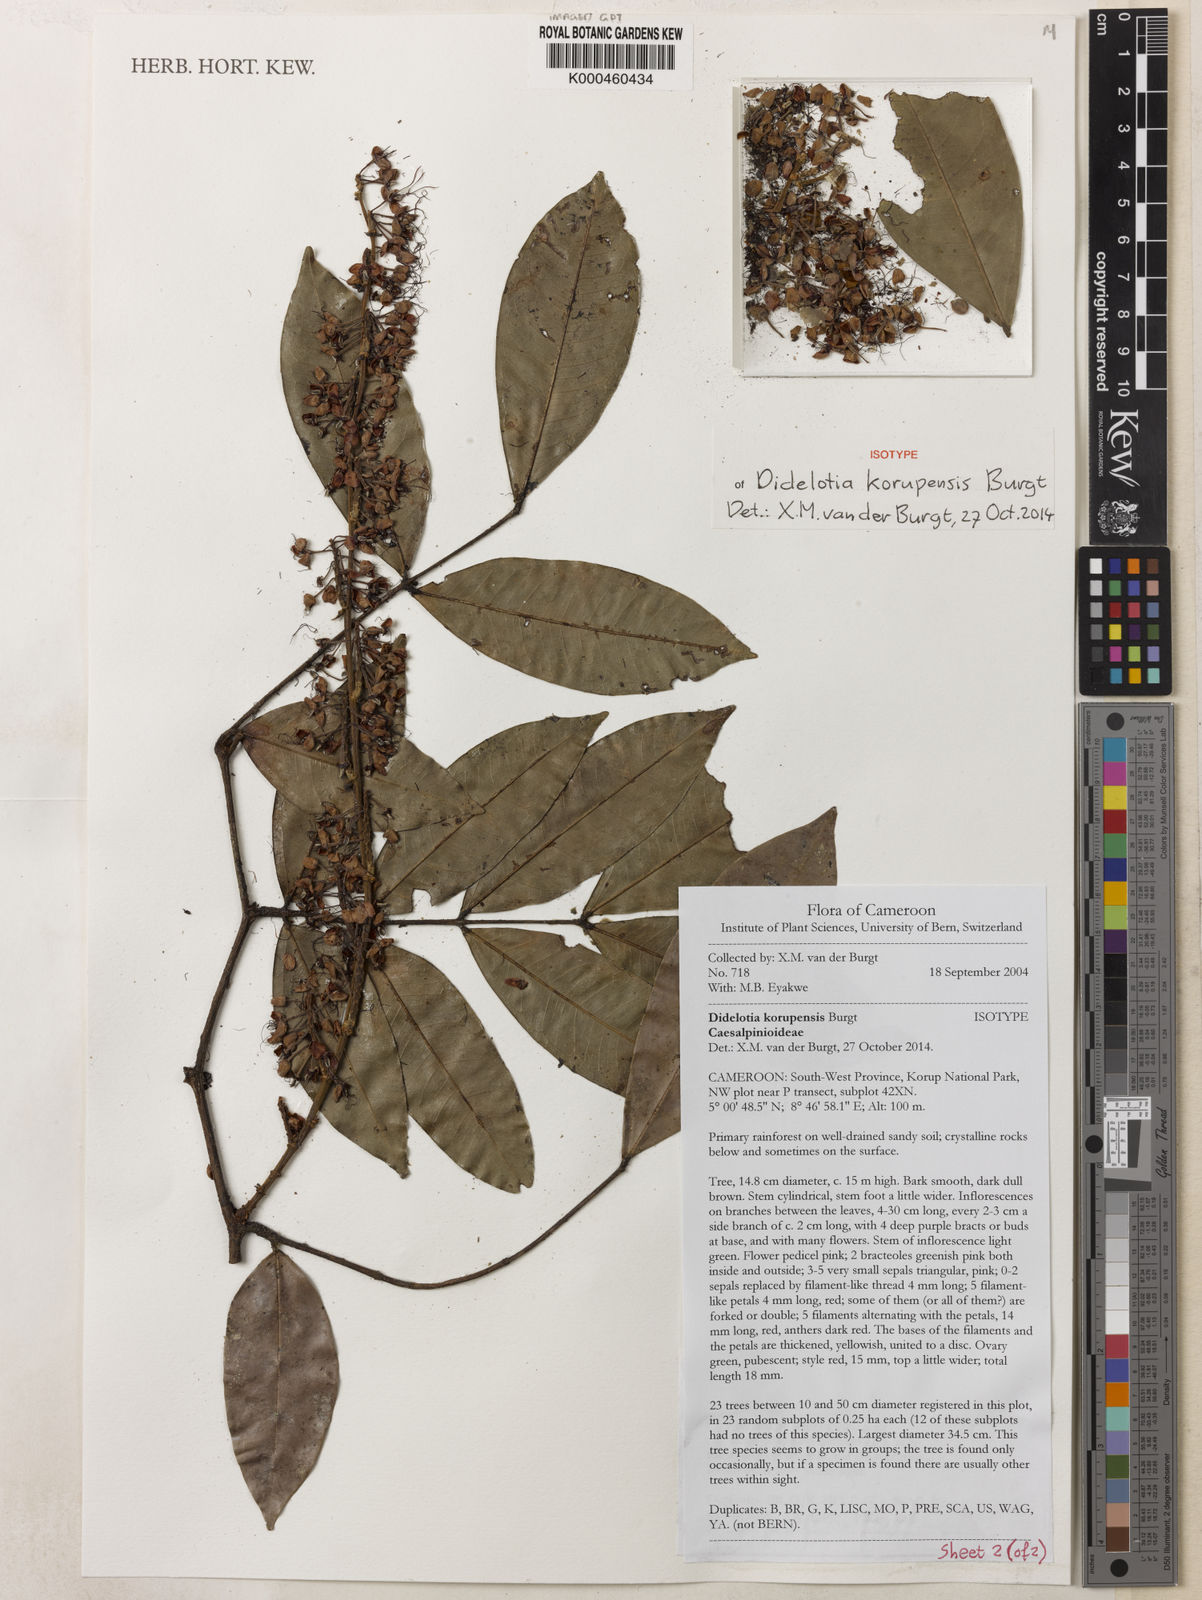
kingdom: Plantae
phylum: Tracheophyta
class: Magnoliopsida
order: Fabales
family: Fabaceae
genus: Didelotia
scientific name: Didelotia korupensis
